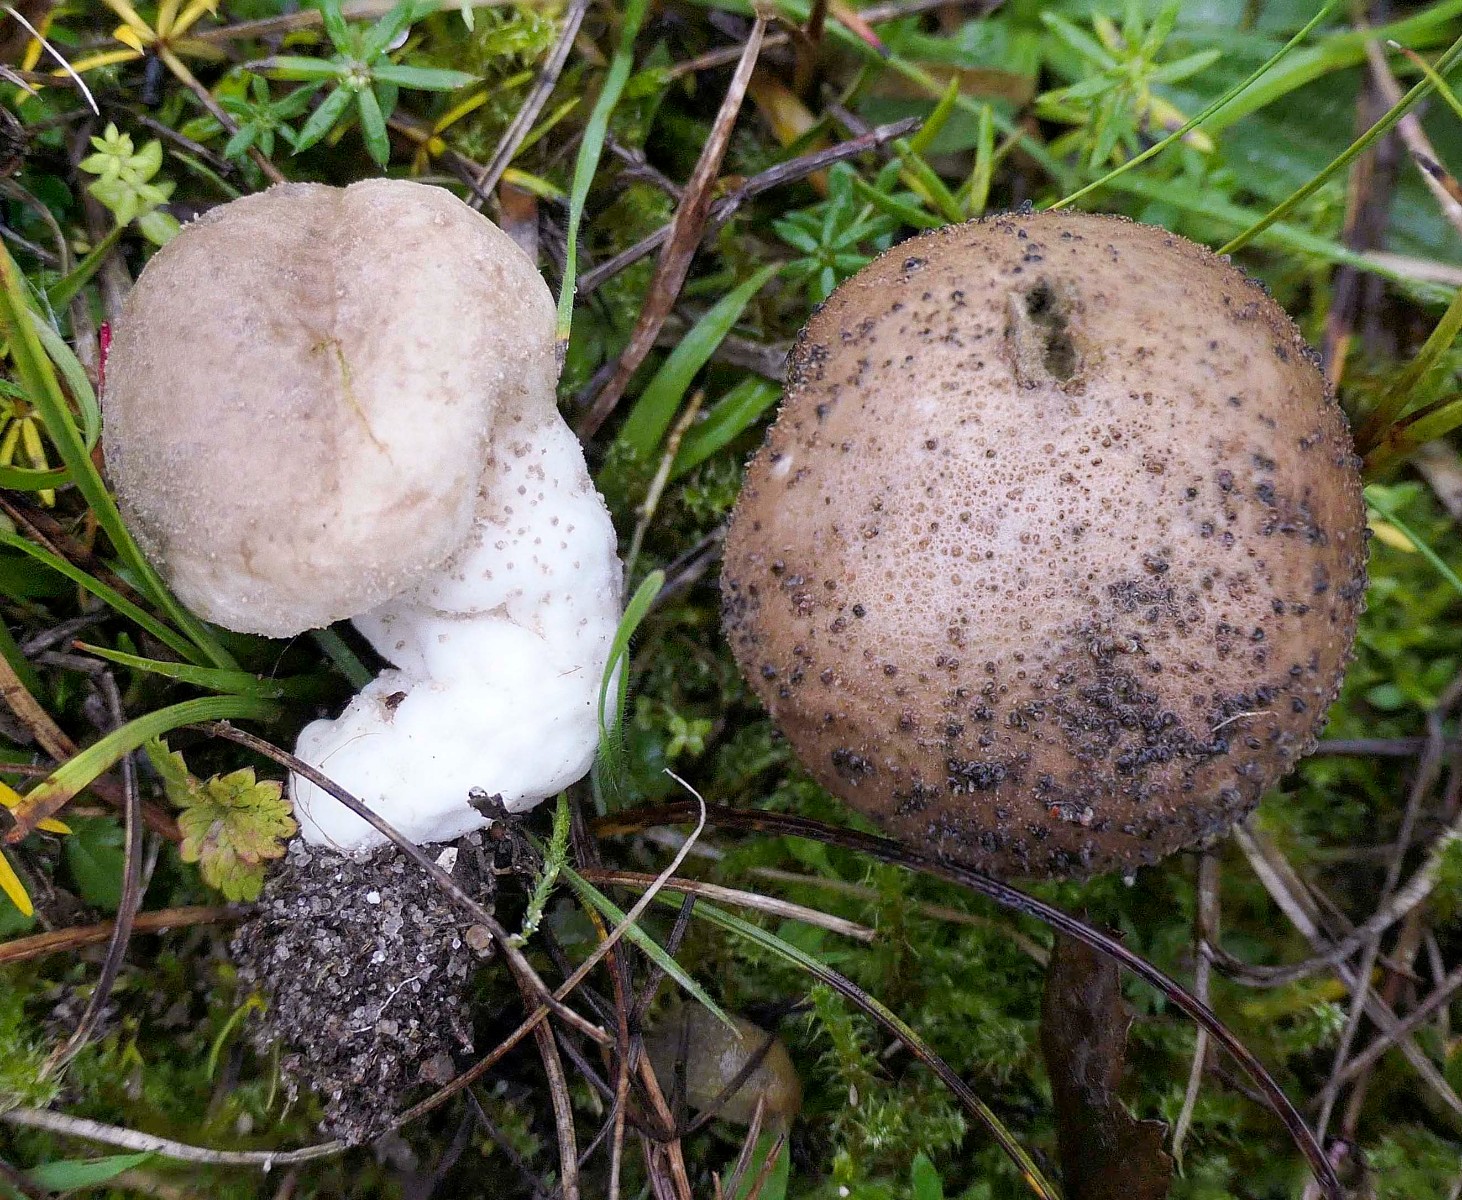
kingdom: Fungi
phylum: Basidiomycota
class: Agaricomycetes
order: Agaricales
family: Lycoperdaceae
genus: Lycoperdon
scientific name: Lycoperdon lividum
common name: mark-støvbold
